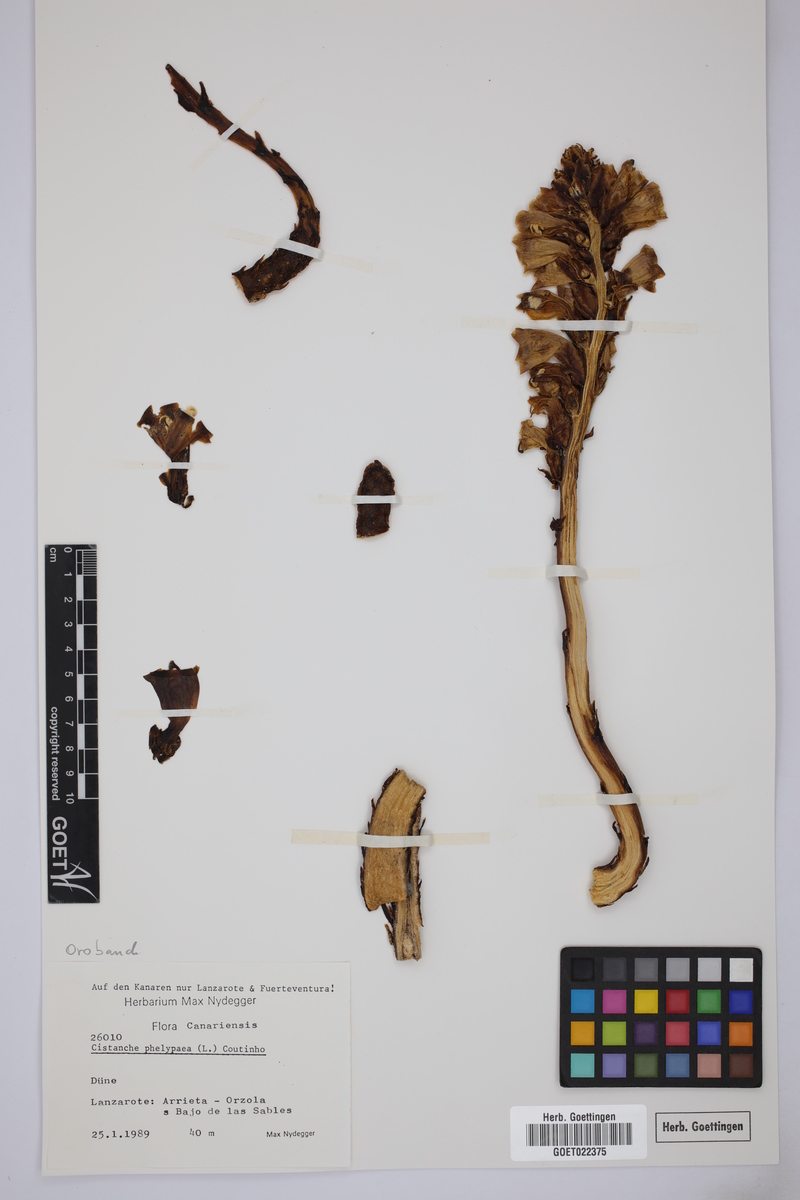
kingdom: Plantae
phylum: Tracheophyta
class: Magnoliopsida
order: Lamiales
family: Orobanchaceae
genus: Cistanche
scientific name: Cistanche phelypaea
